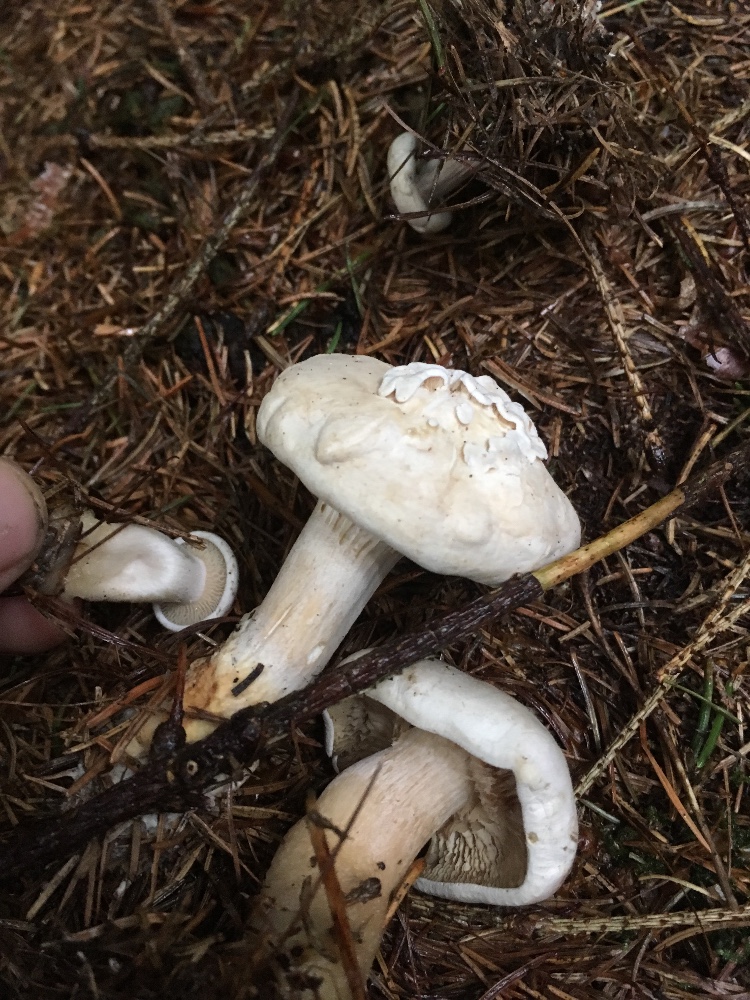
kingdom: Fungi
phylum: Basidiomycota
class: Agaricomycetes
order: Agaricales
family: Tricholomataceae
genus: Clitocybe
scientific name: Clitocybe phyllophila
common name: løv-tragthat
